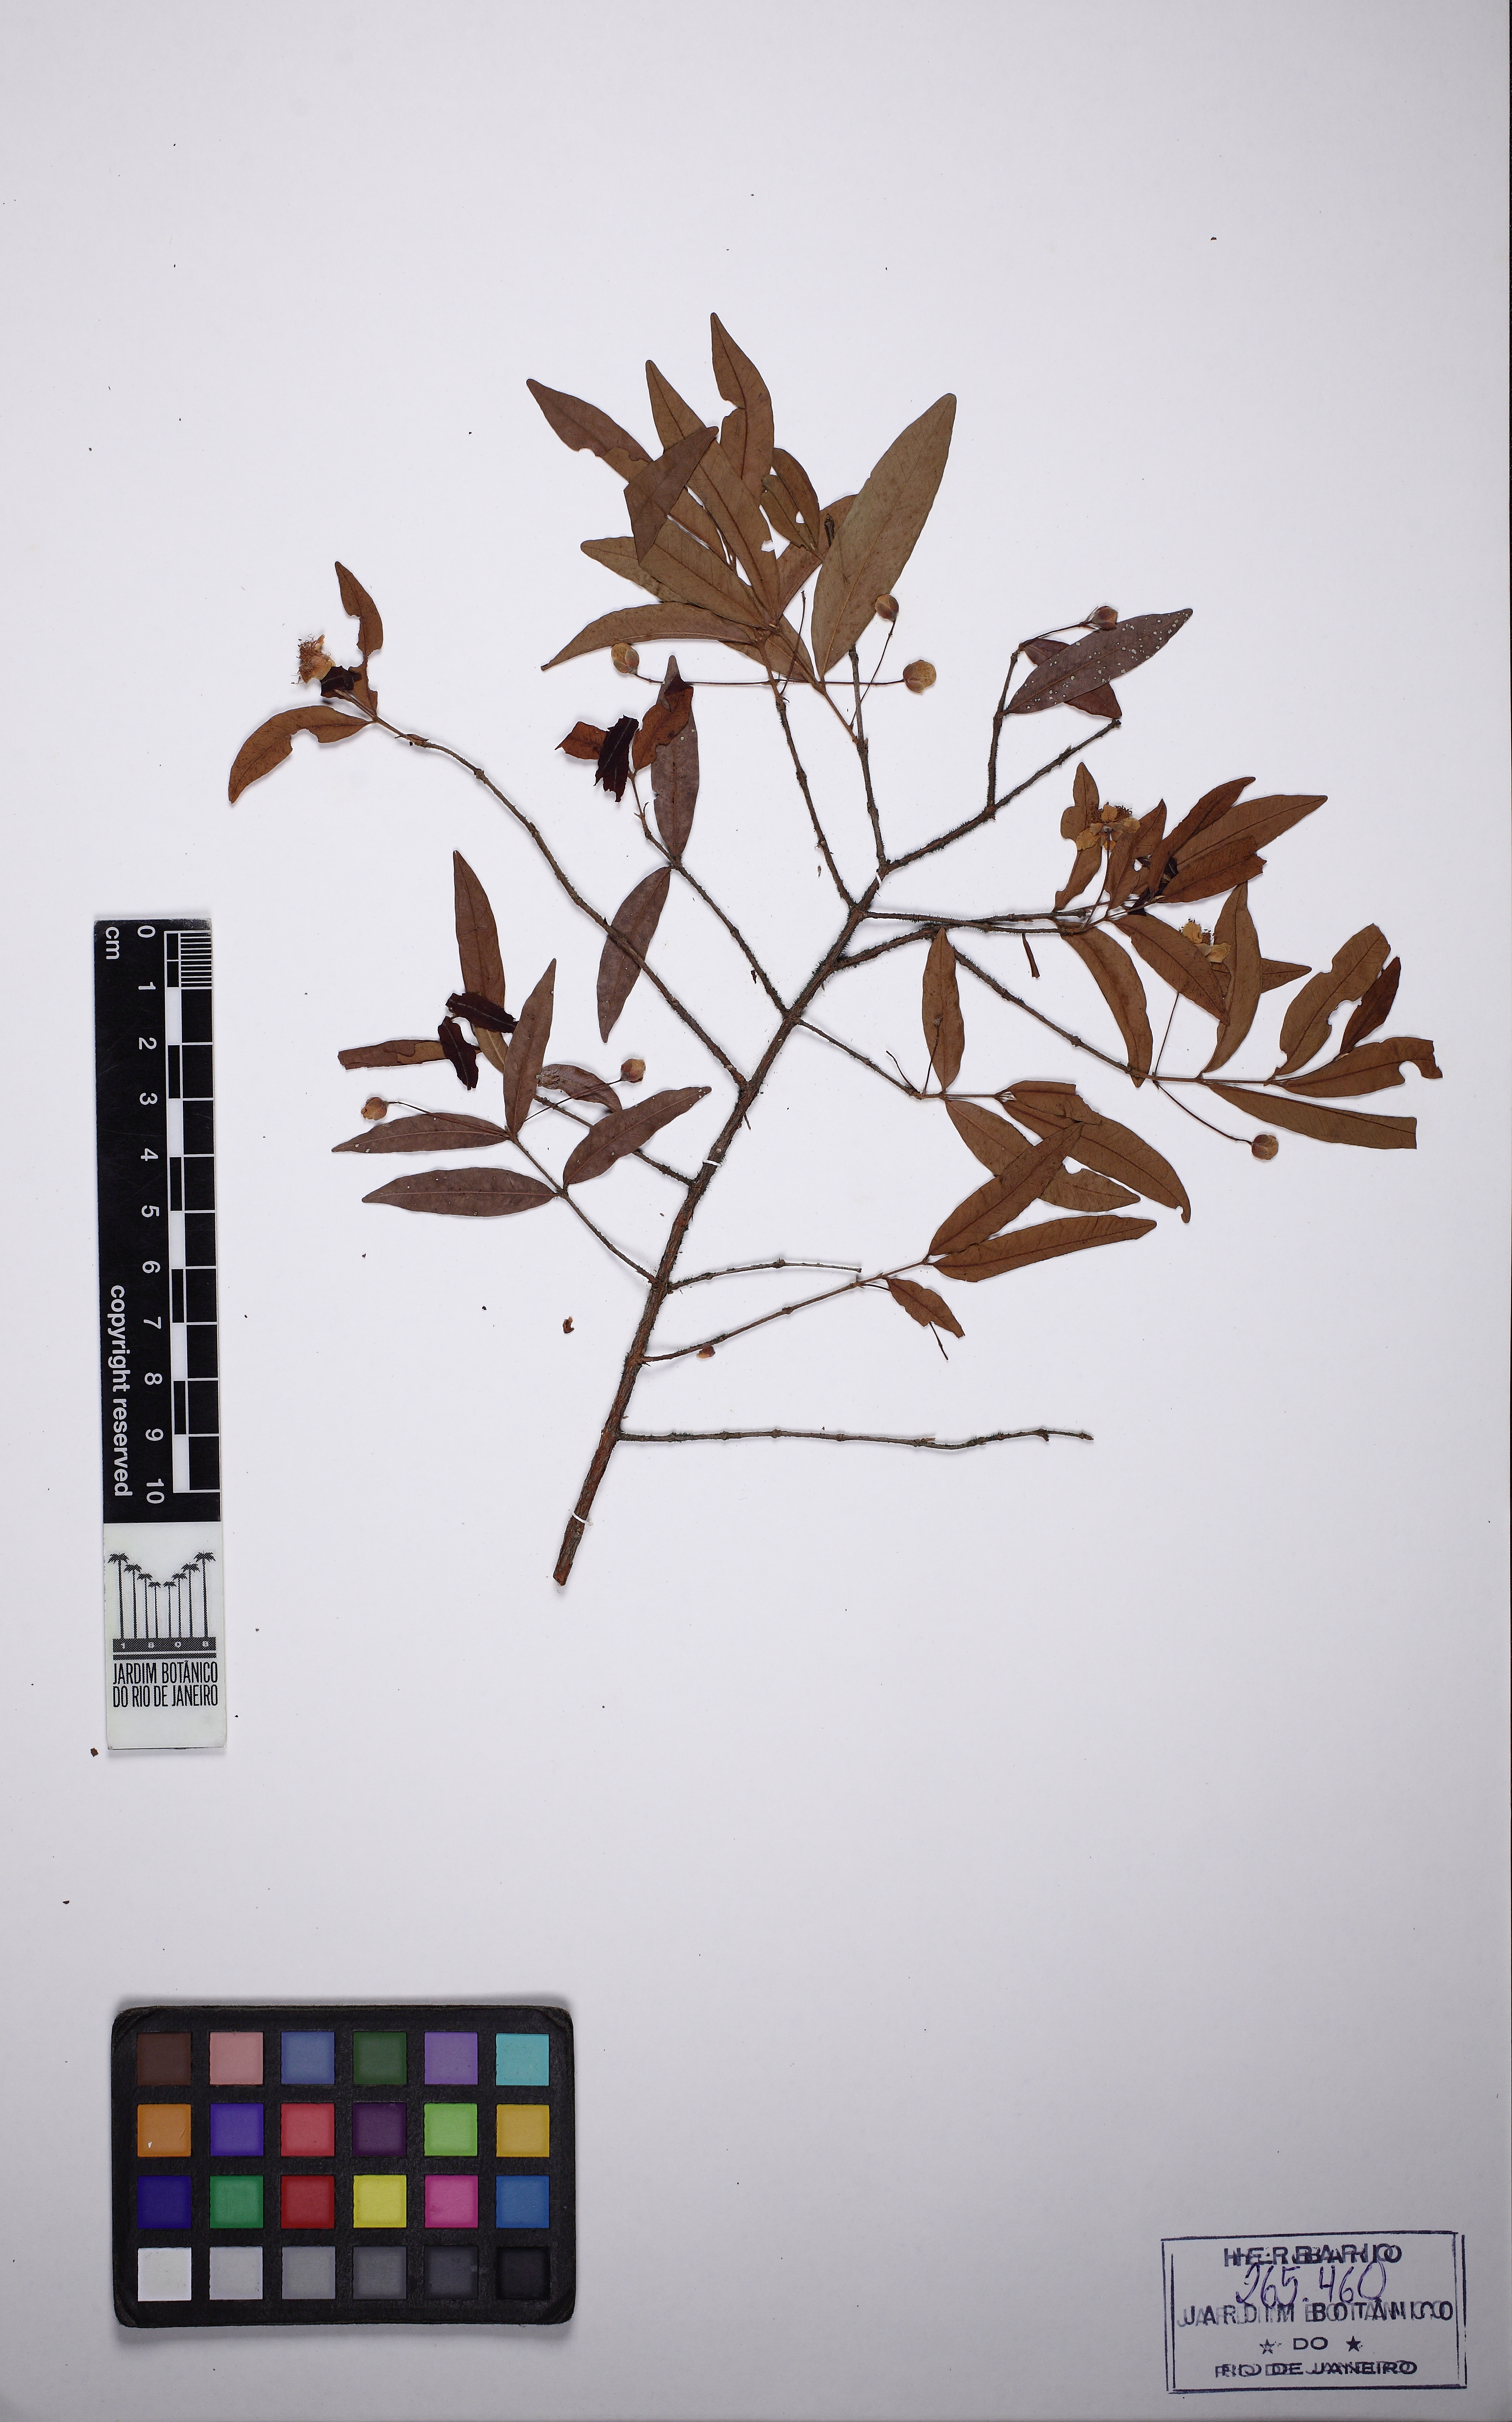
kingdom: Plantae
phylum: Tracheophyta
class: Magnoliopsida
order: Myrtales
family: Myrtaceae
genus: Eugenia
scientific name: Eugenia pyriformis
